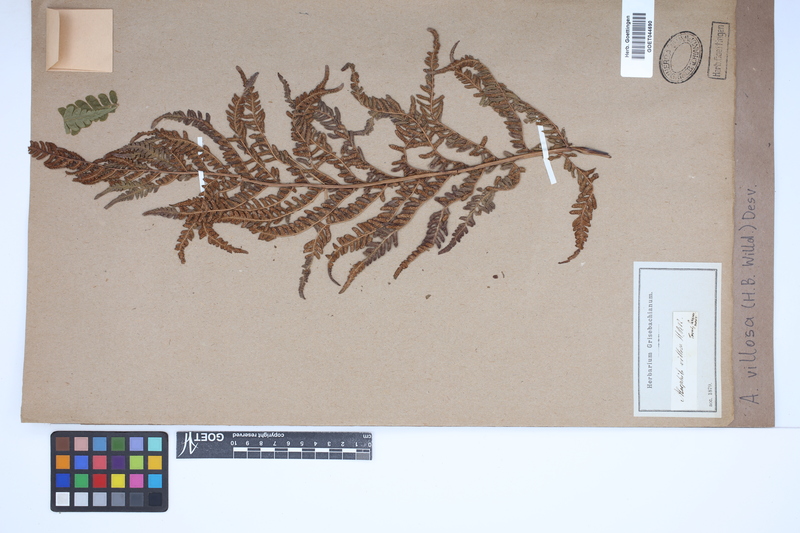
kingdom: Plantae
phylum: Tracheophyta
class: Polypodiopsida
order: Cyatheales
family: Cyatheaceae
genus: Cyathea
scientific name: Cyathea villosa
